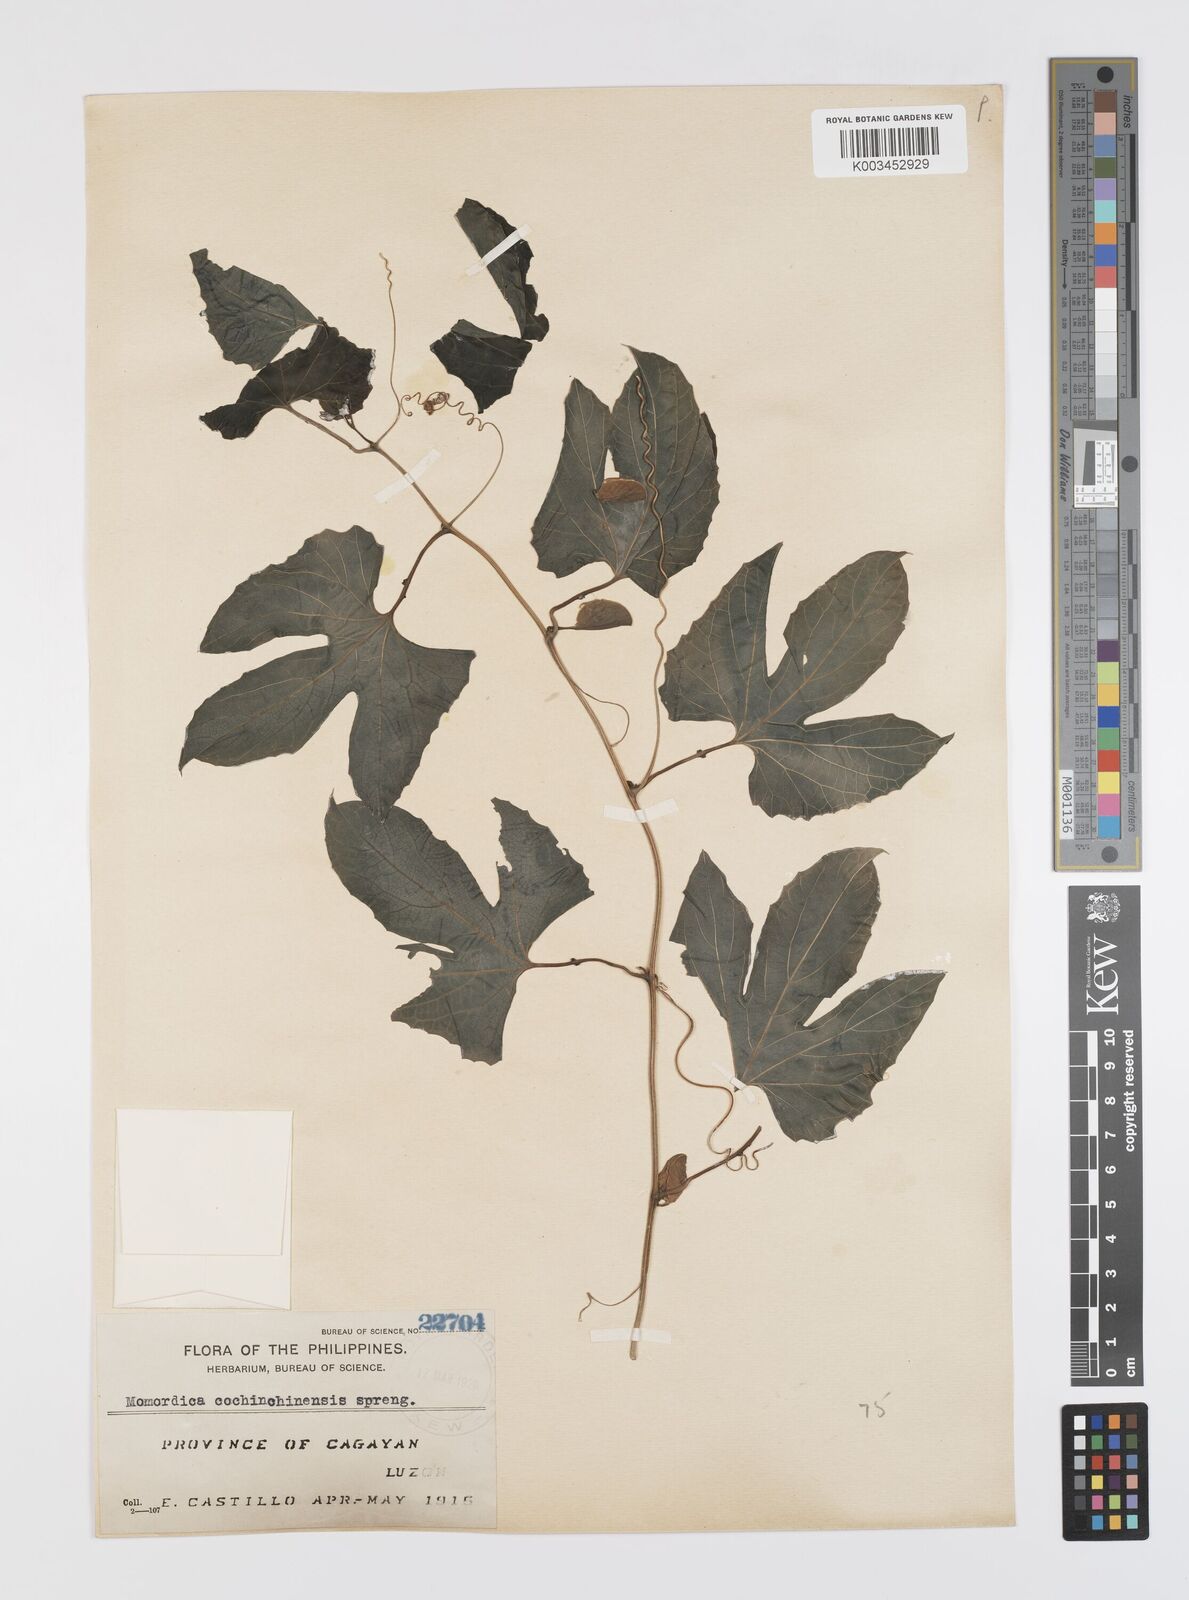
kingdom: Plantae
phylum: Tracheophyta
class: Magnoliopsida
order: Cucurbitales
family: Cucurbitaceae
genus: Momordica
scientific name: Momordica cochinchinensis
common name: Chinese bitter-cucumber
